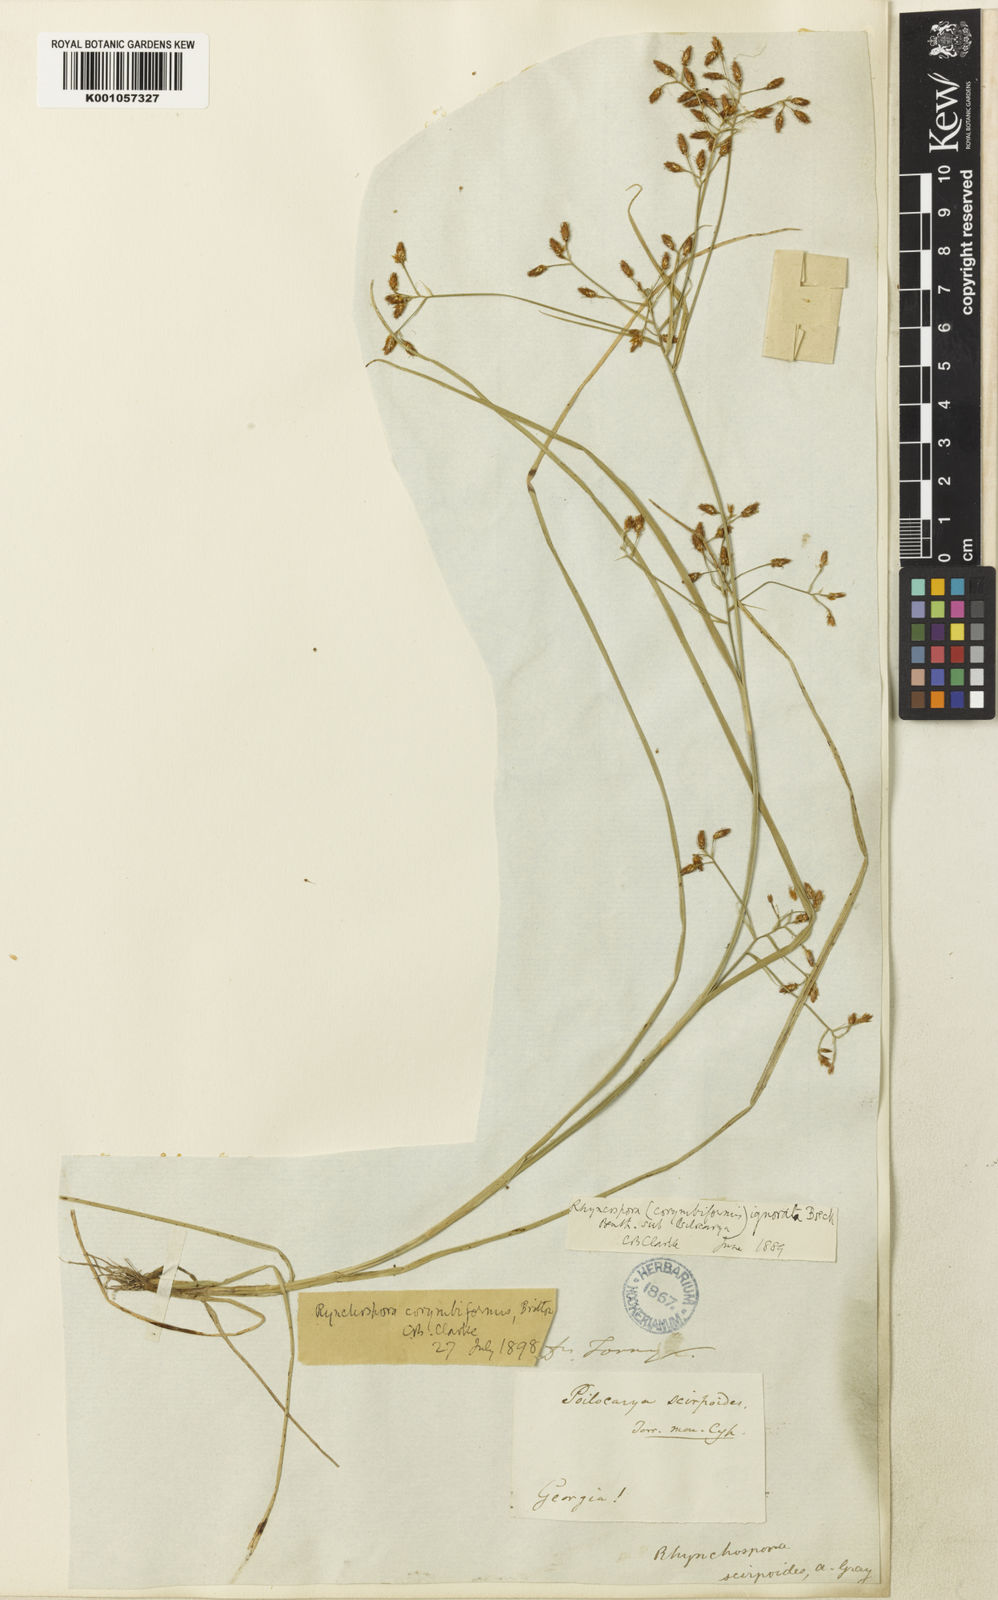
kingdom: Plantae
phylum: Tracheophyta
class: Liliopsida
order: Poales
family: Cyperaceae
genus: Rhynchospora
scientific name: Rhynchospora scirpoides
